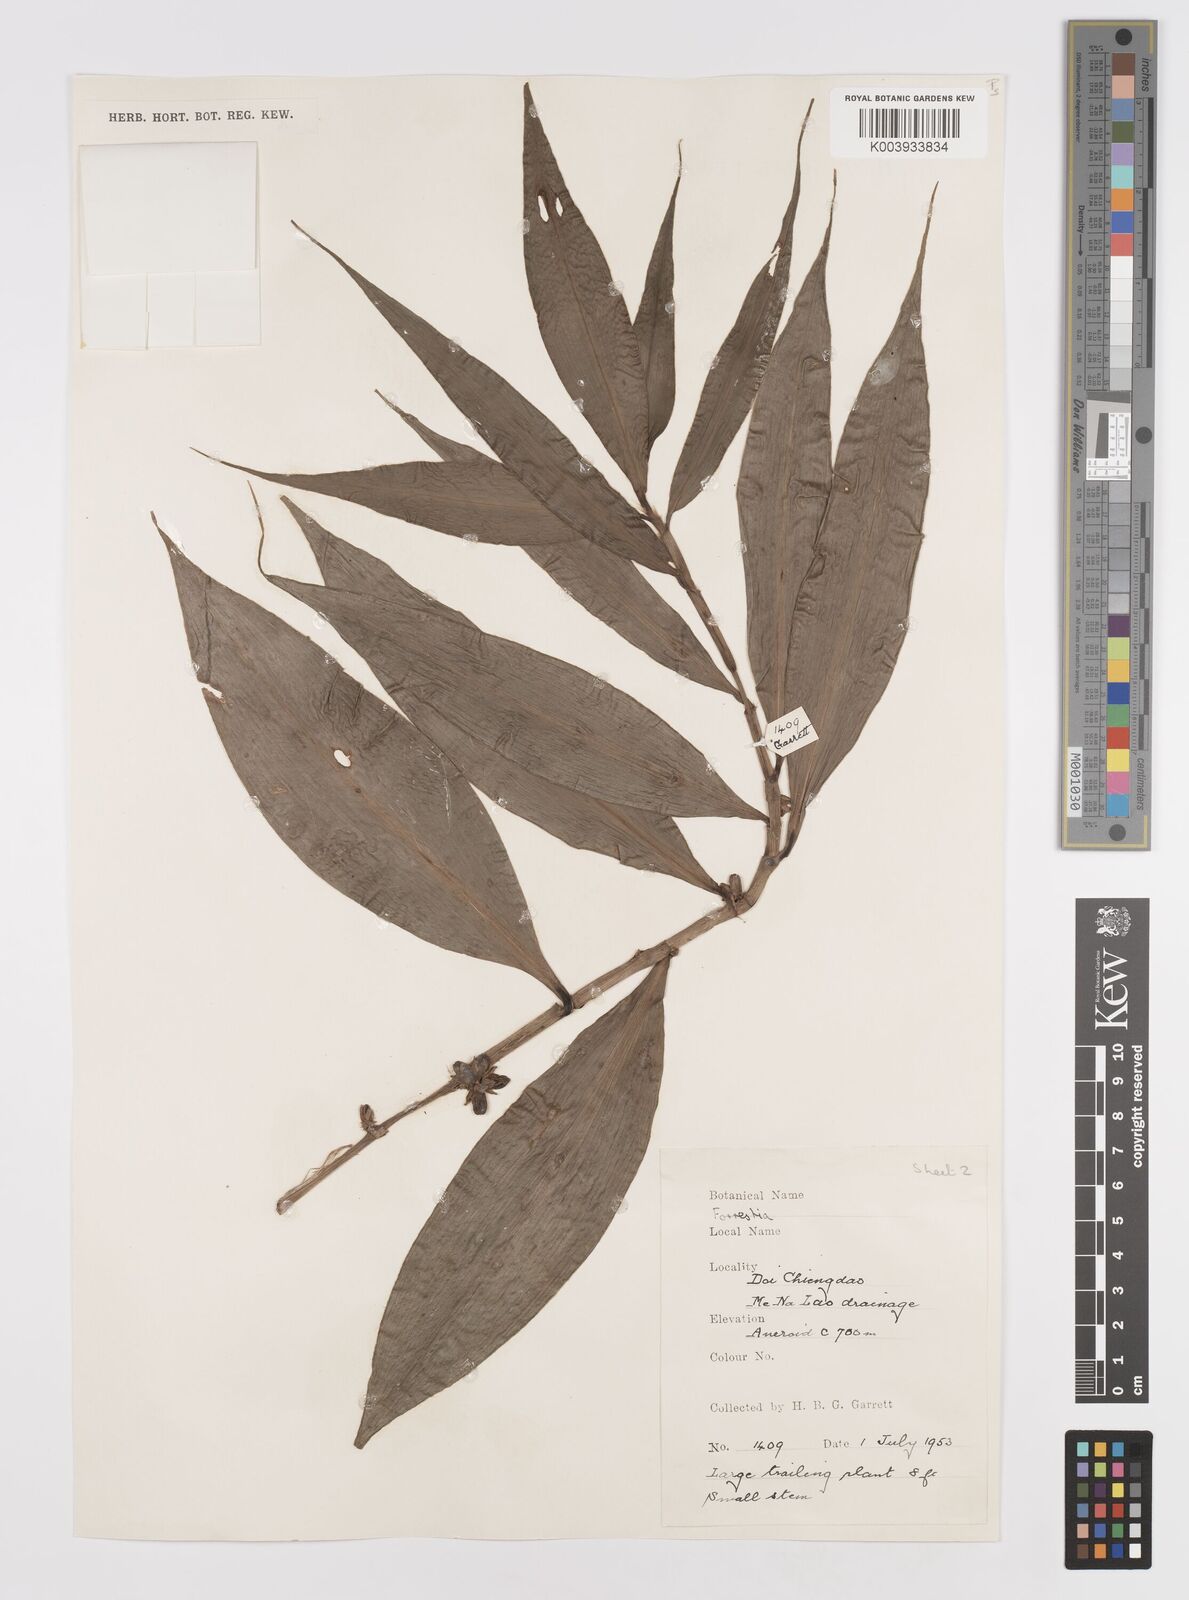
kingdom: Plantae
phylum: Tracheophyta
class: Liliopsida
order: Commelinales
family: Commelinaceae
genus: Amischotolype
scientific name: Amischotolype glabrata
